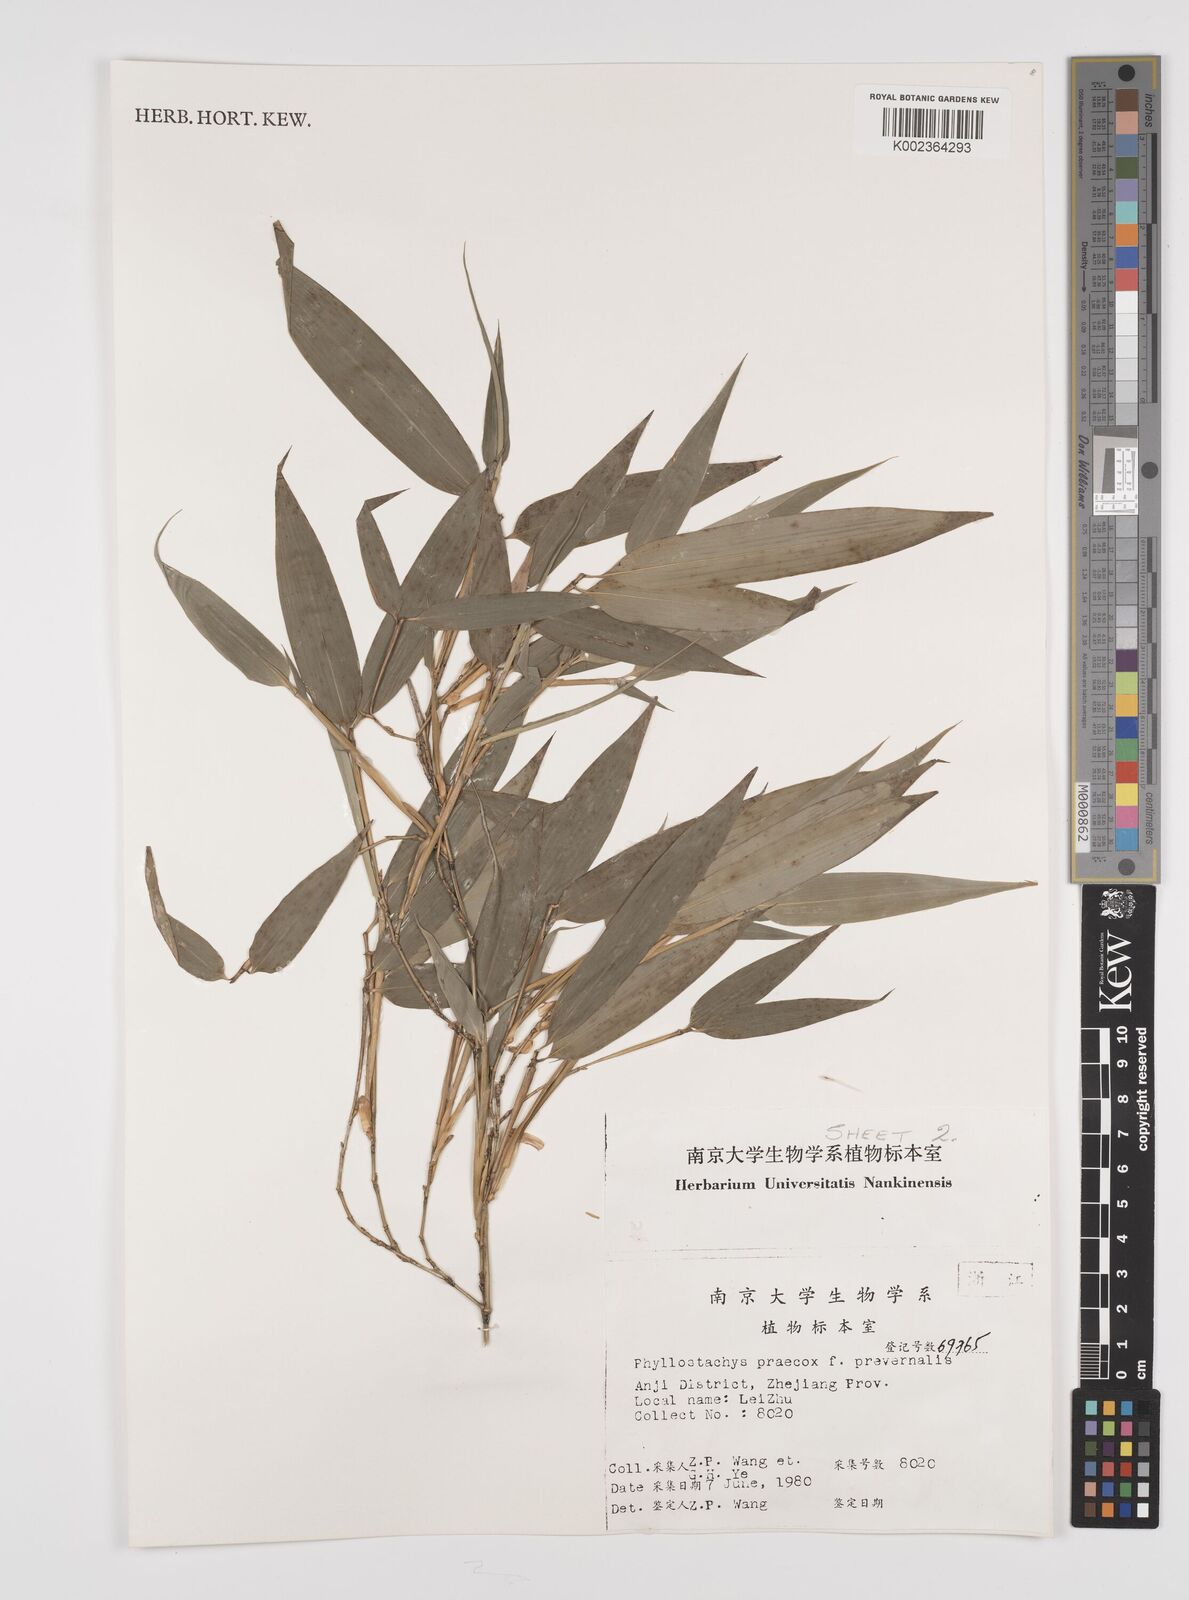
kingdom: Plantae
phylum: Tracheophyta
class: Liliopsida
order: Poales
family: Poaceae
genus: Phyllostachys
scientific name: Phyllostachys violascens
